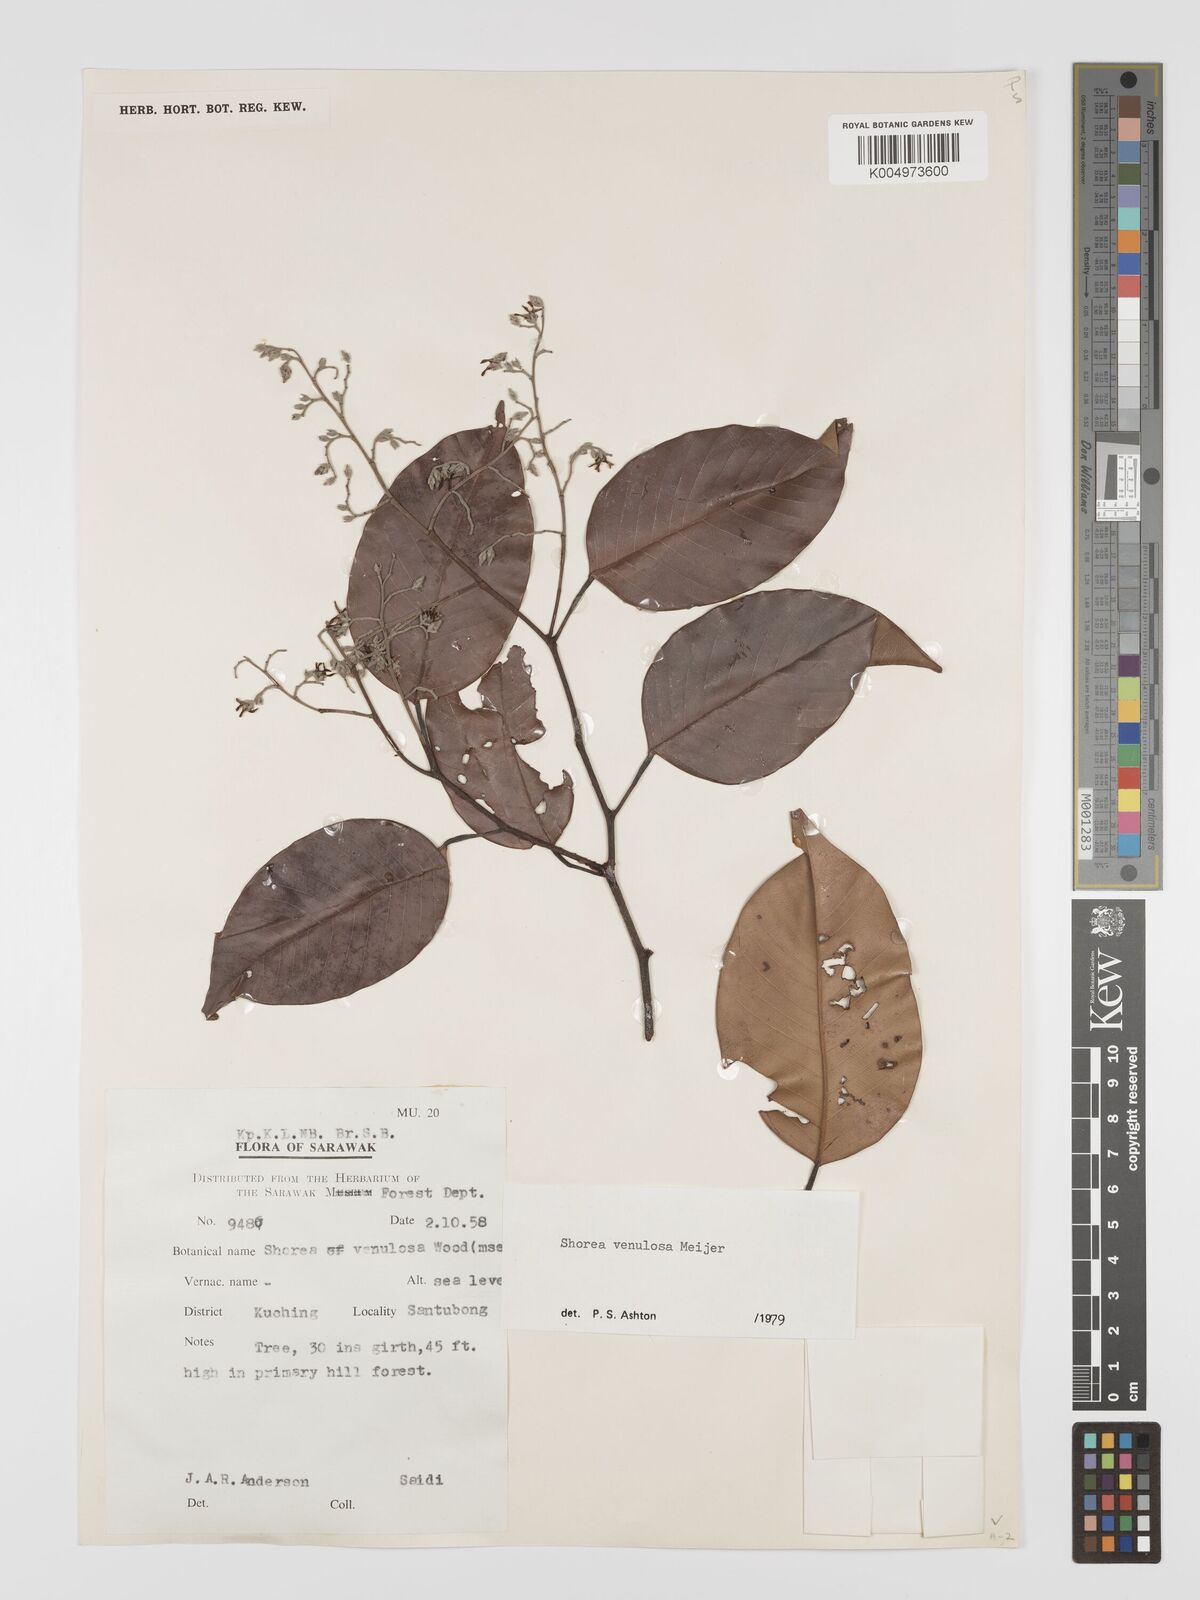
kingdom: Plantae
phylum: Tracheophyta
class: Magnoliopsida
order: Malvales
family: Dipterocarpaceae
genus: Shorea
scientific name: Shorea venulosa
